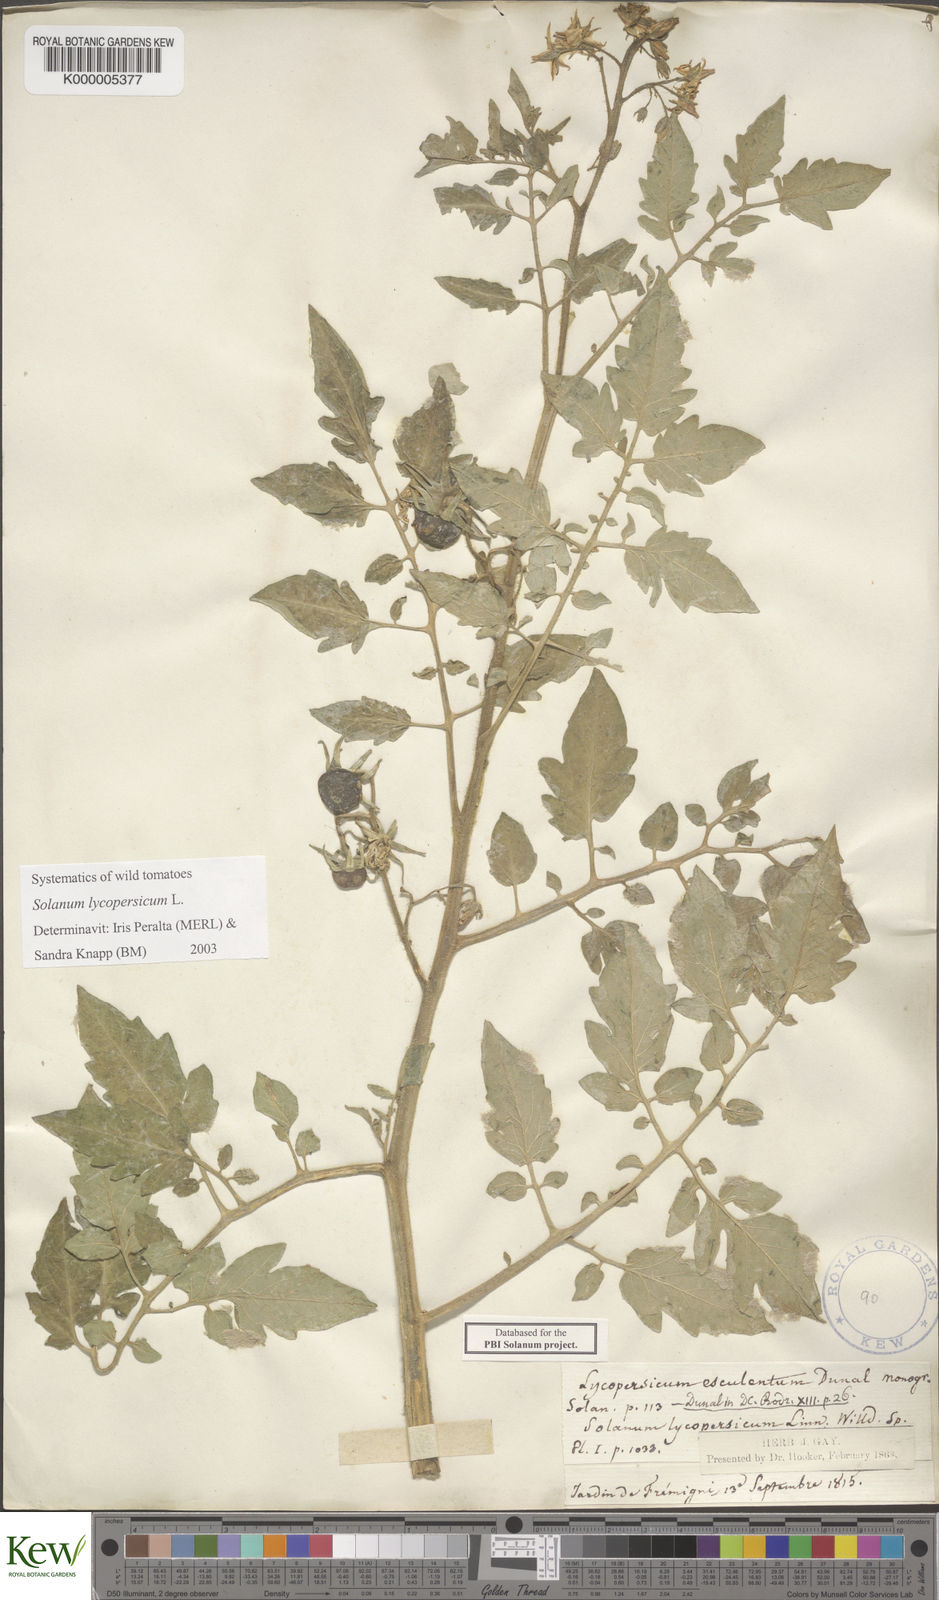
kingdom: Plantae
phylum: Tracheophyta
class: Magnoliopsida
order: Solanales
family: Solanaceae
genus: Solanum
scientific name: Solanum colombianum
